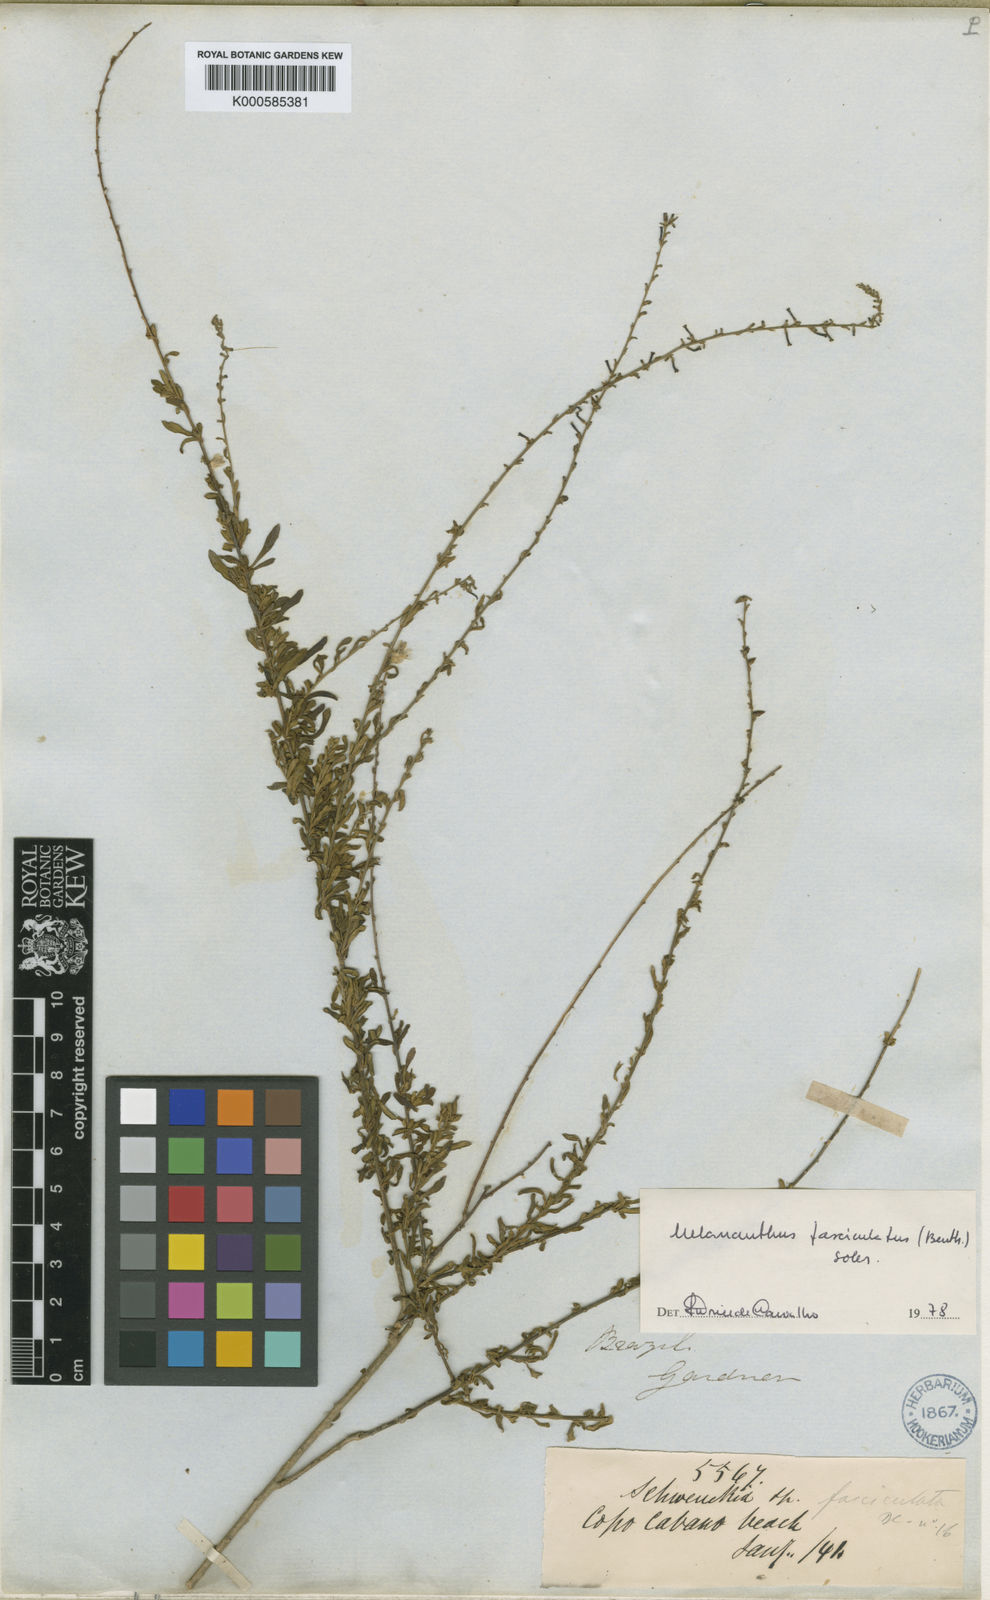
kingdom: Plantae
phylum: Tracheophyta
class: Magnoliopsida
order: Solanales
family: Solanaceae
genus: Melananthus
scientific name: Melananthus fasciculatus
